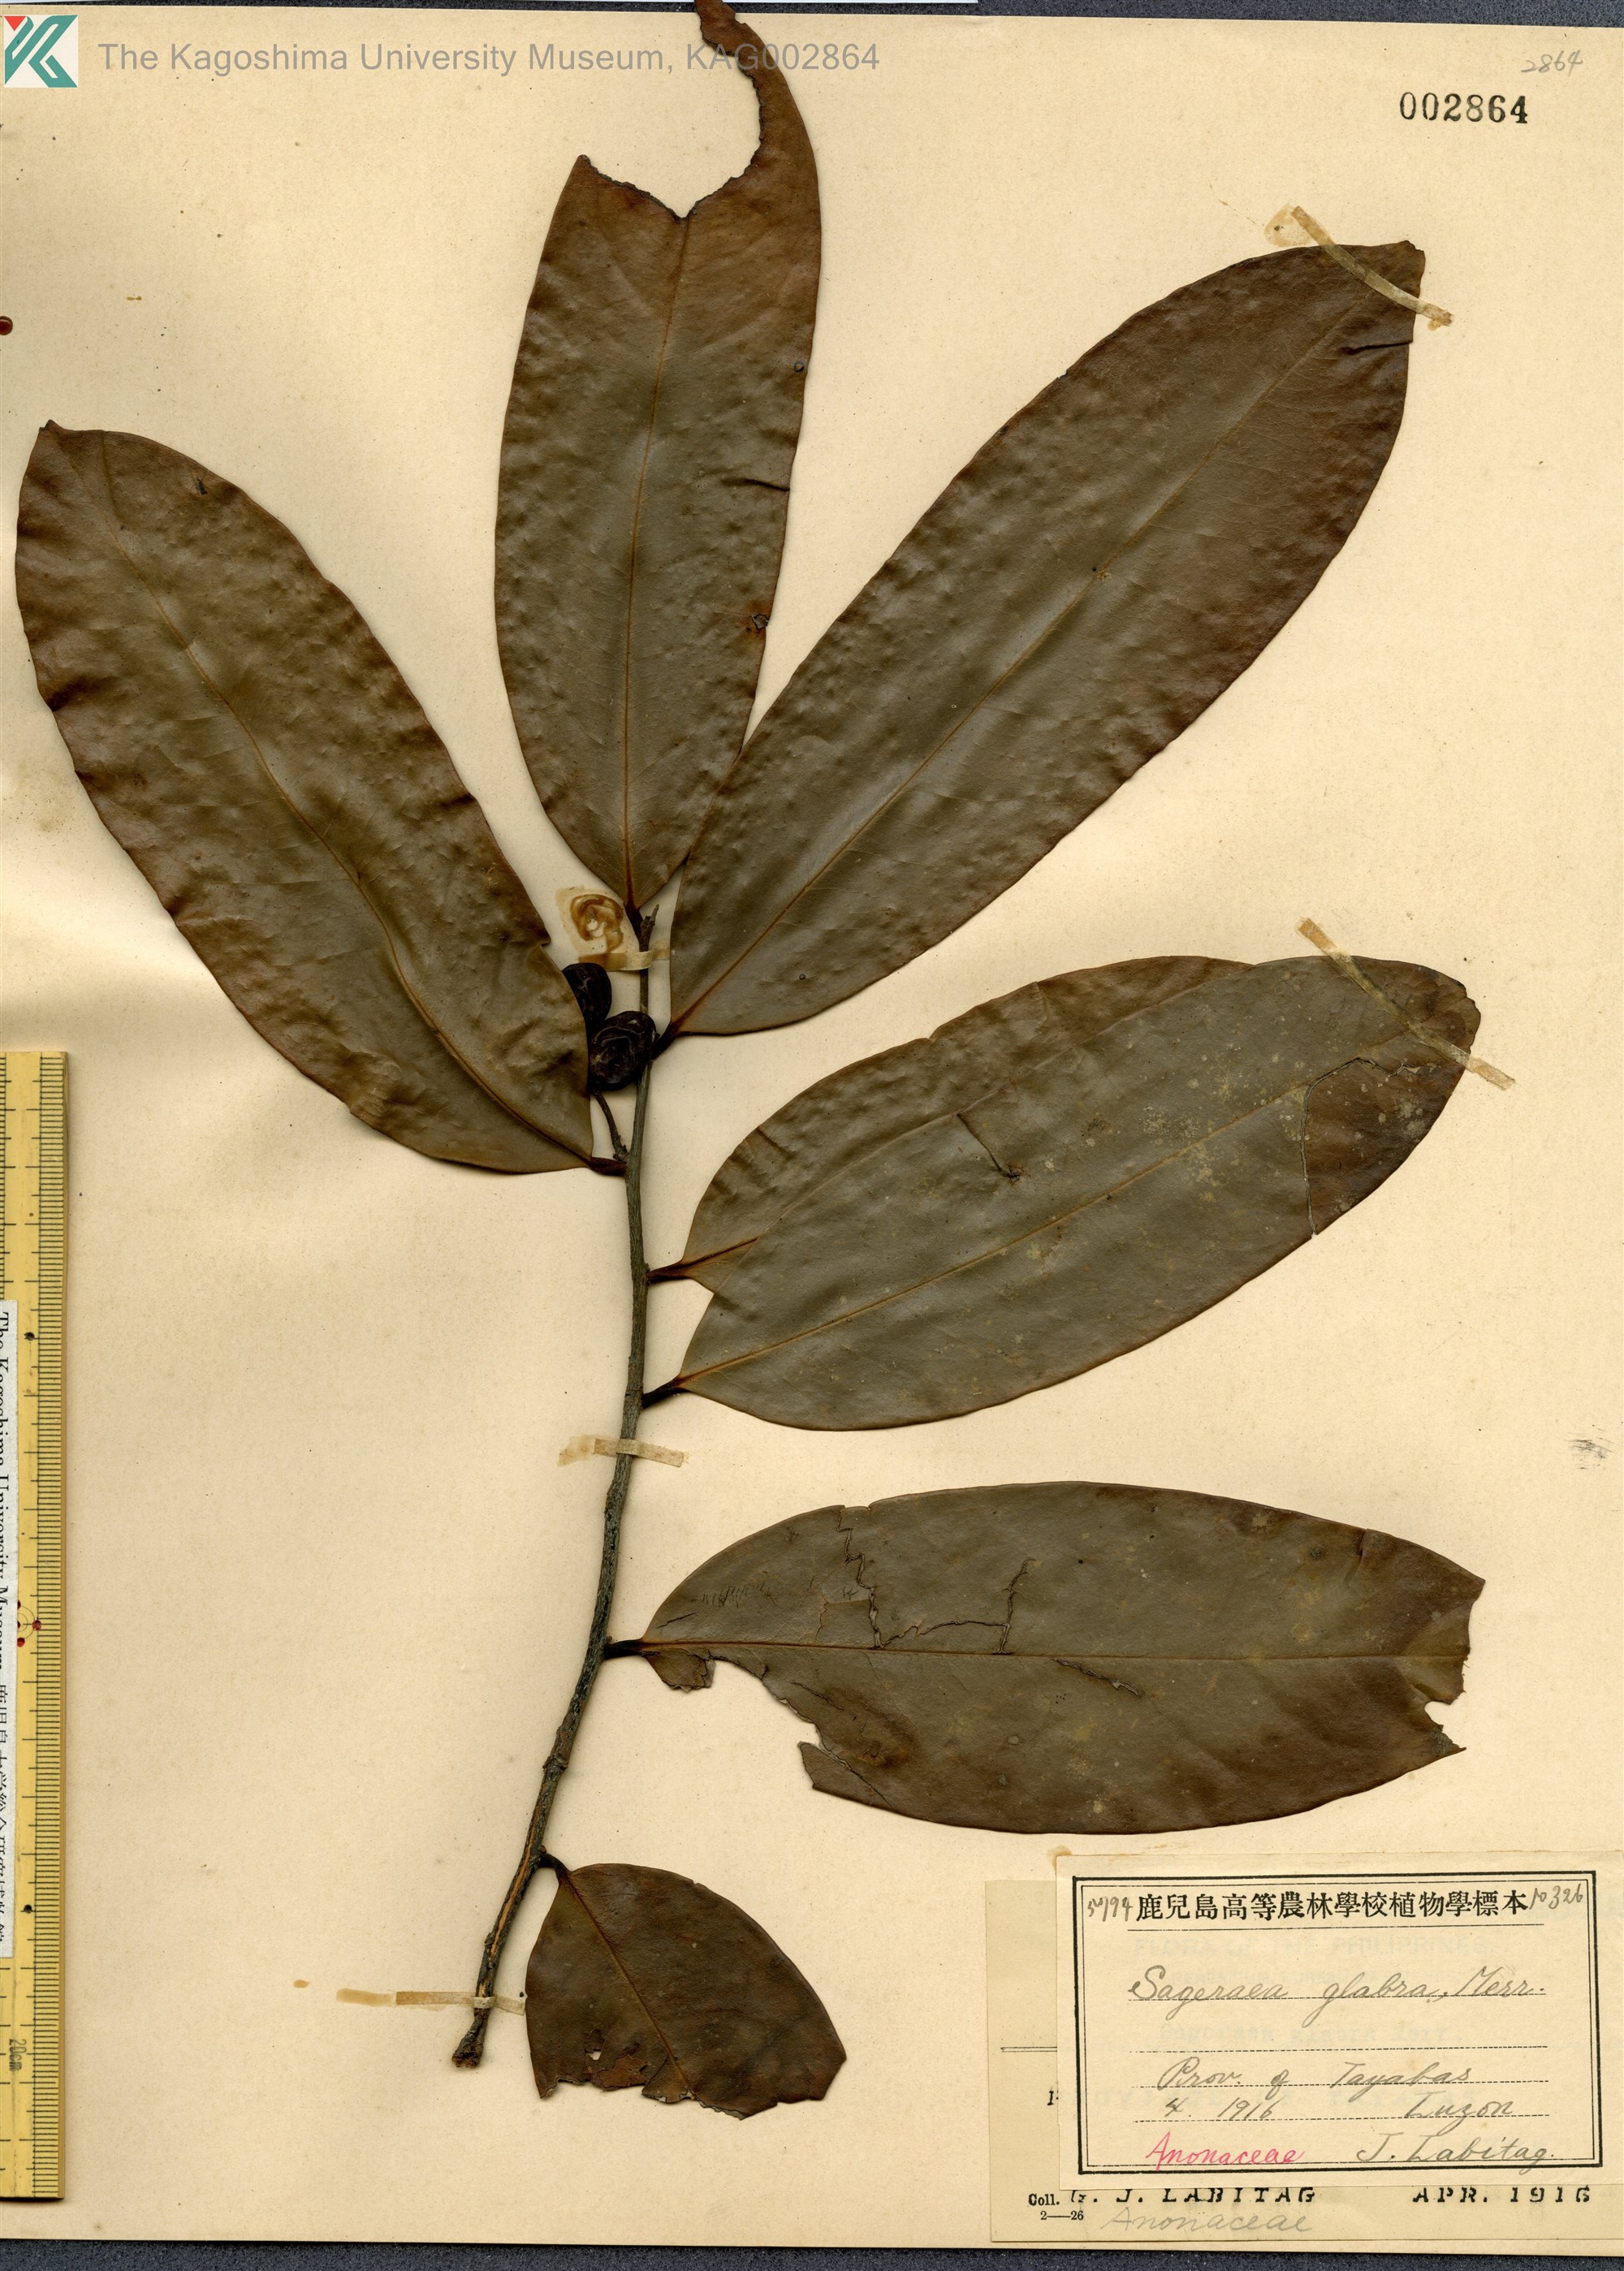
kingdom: Plantae
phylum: Tracheophyta
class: Magnoliopsida
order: Magnoliales
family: Annonaceae
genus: Sageraea
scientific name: Sageraea lanceolata
